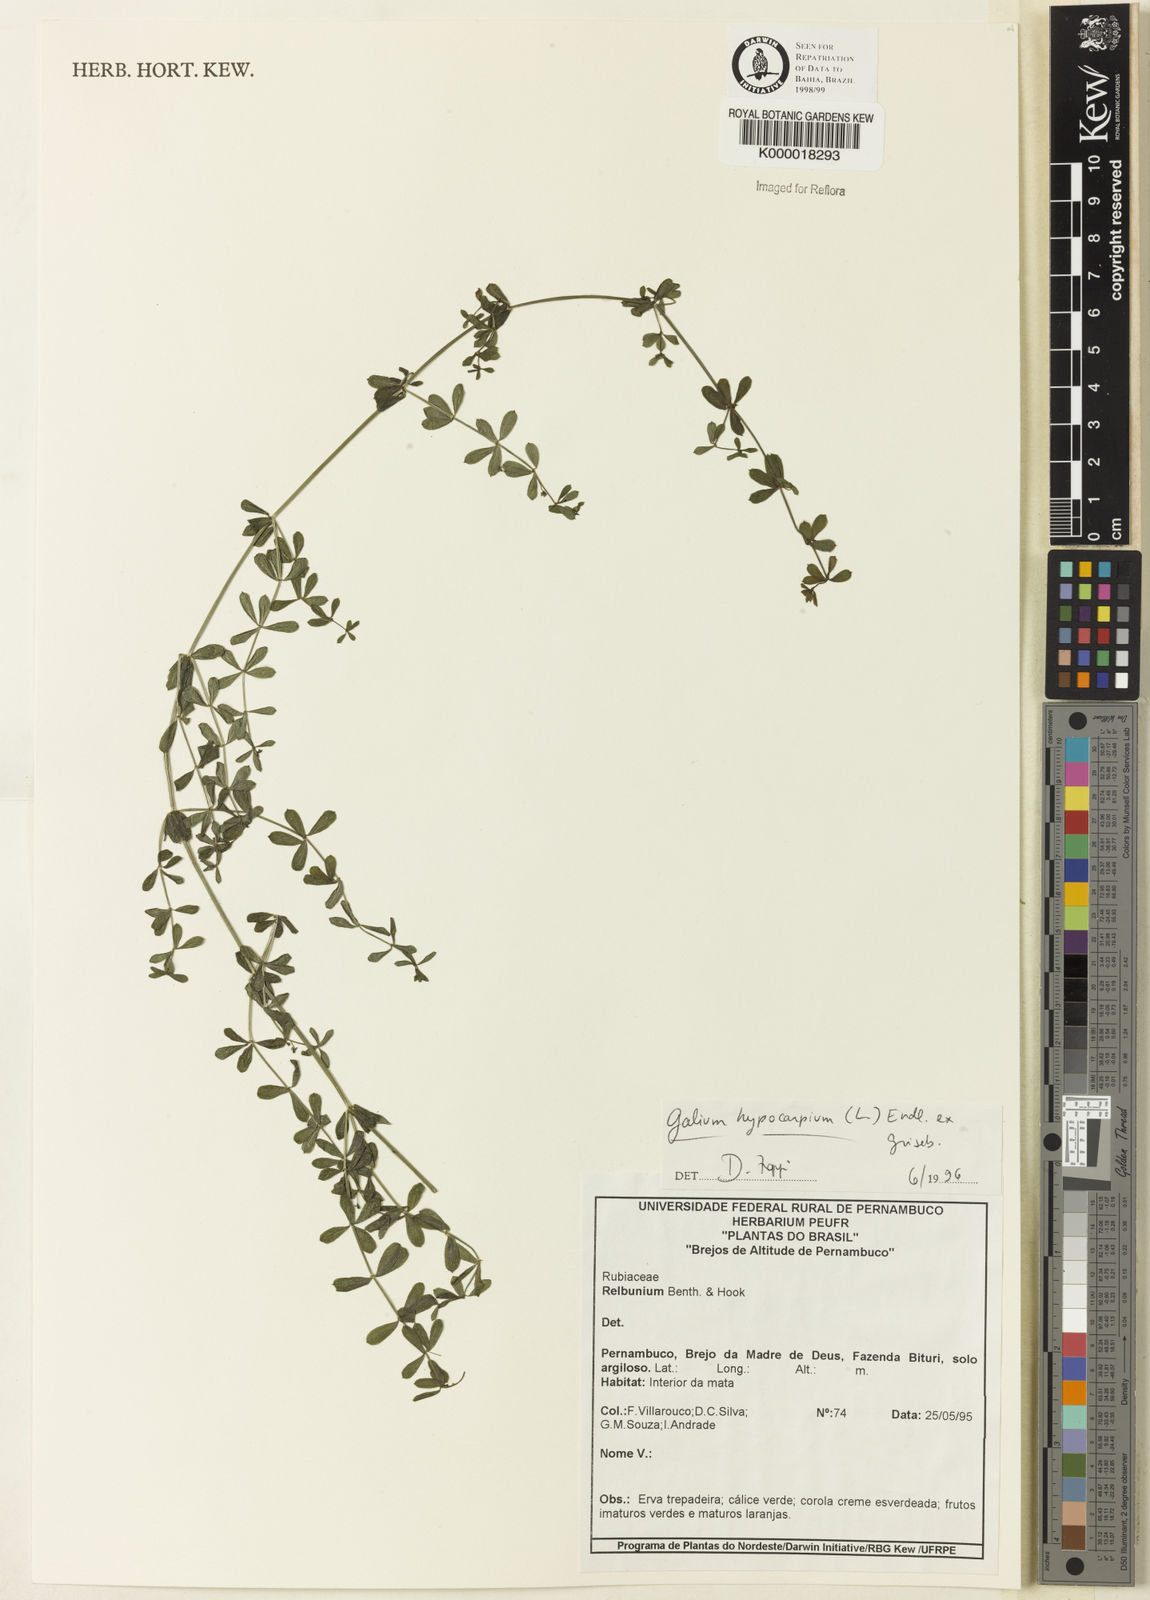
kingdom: Plantae
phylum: Tracheophyta
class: Magnoliopsida
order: Gentianales
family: Rubiaceae
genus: Galium
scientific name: Galium hypocarpium
